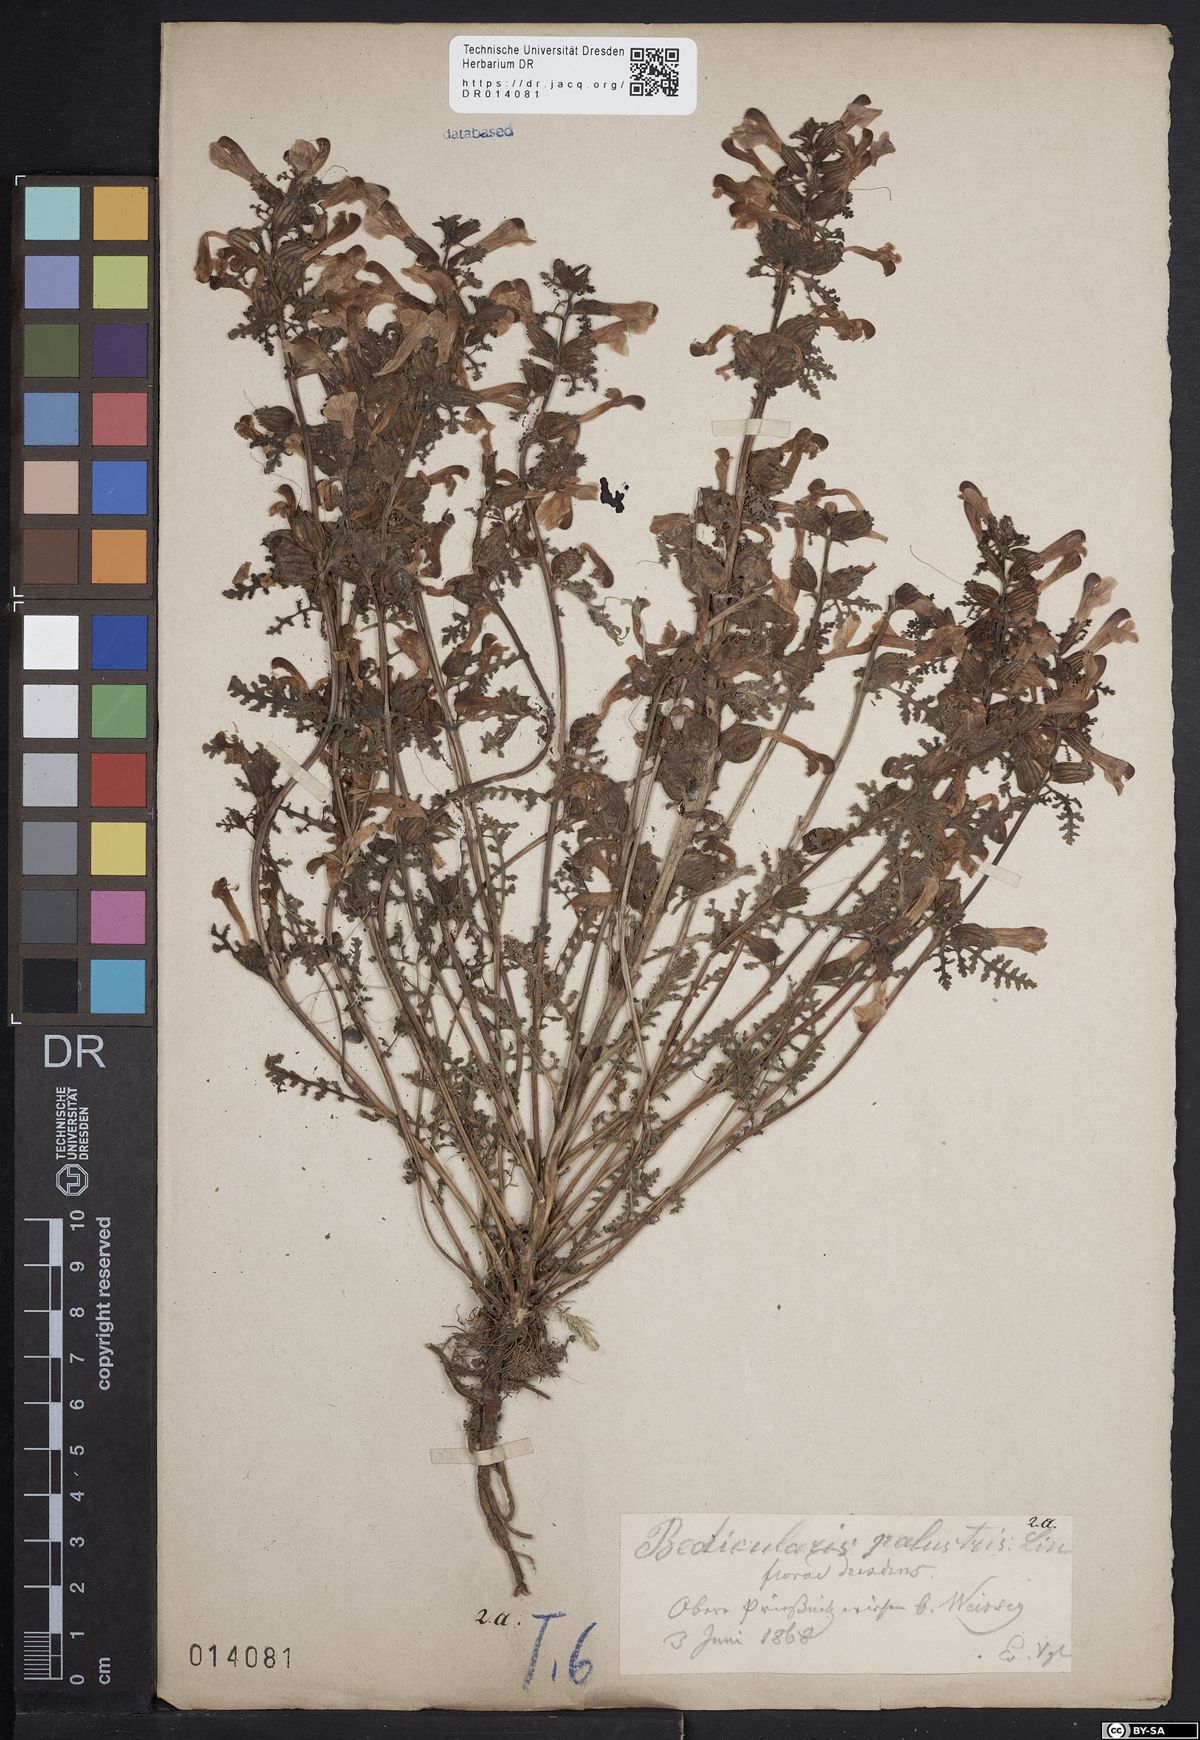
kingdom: Plantae
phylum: Tracheophyta
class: Magnoliopsida
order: Lamiales
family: Orobanchaceae
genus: Pedicularis
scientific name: Pedicularis palustris
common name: Marsh lousewort
